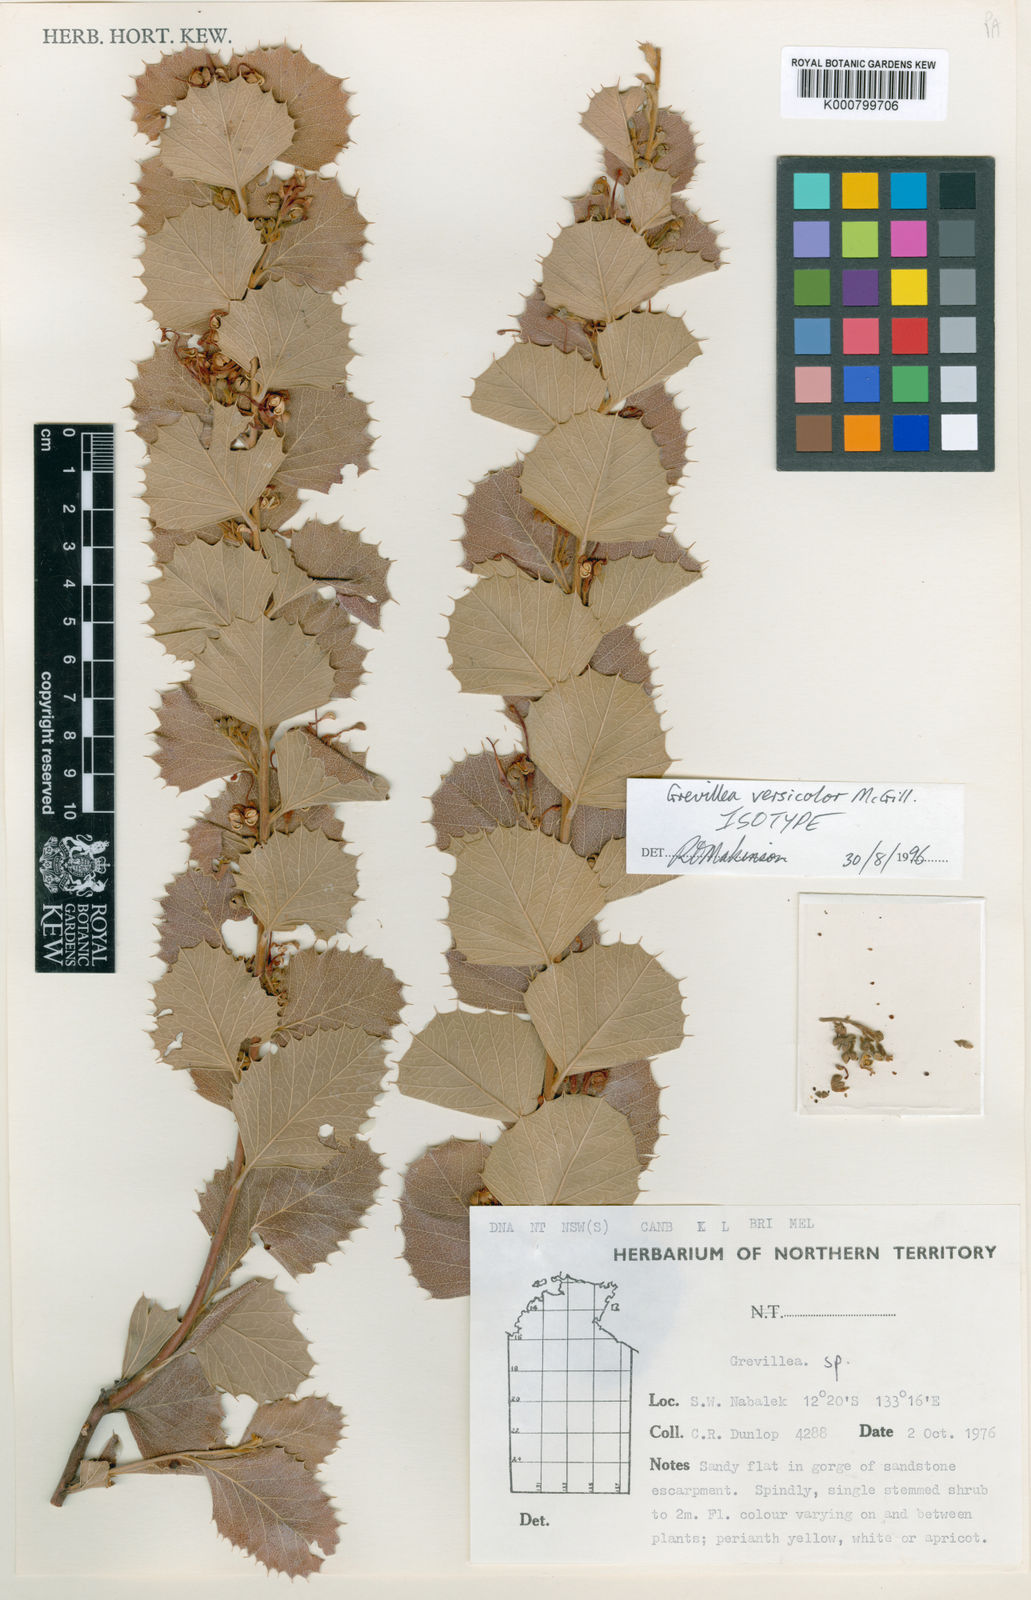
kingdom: Plantae
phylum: Tracheophyta
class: Magnoliopsida
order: Proteales
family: Proteaceae
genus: Grevillea
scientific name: Grevillea versicolor
